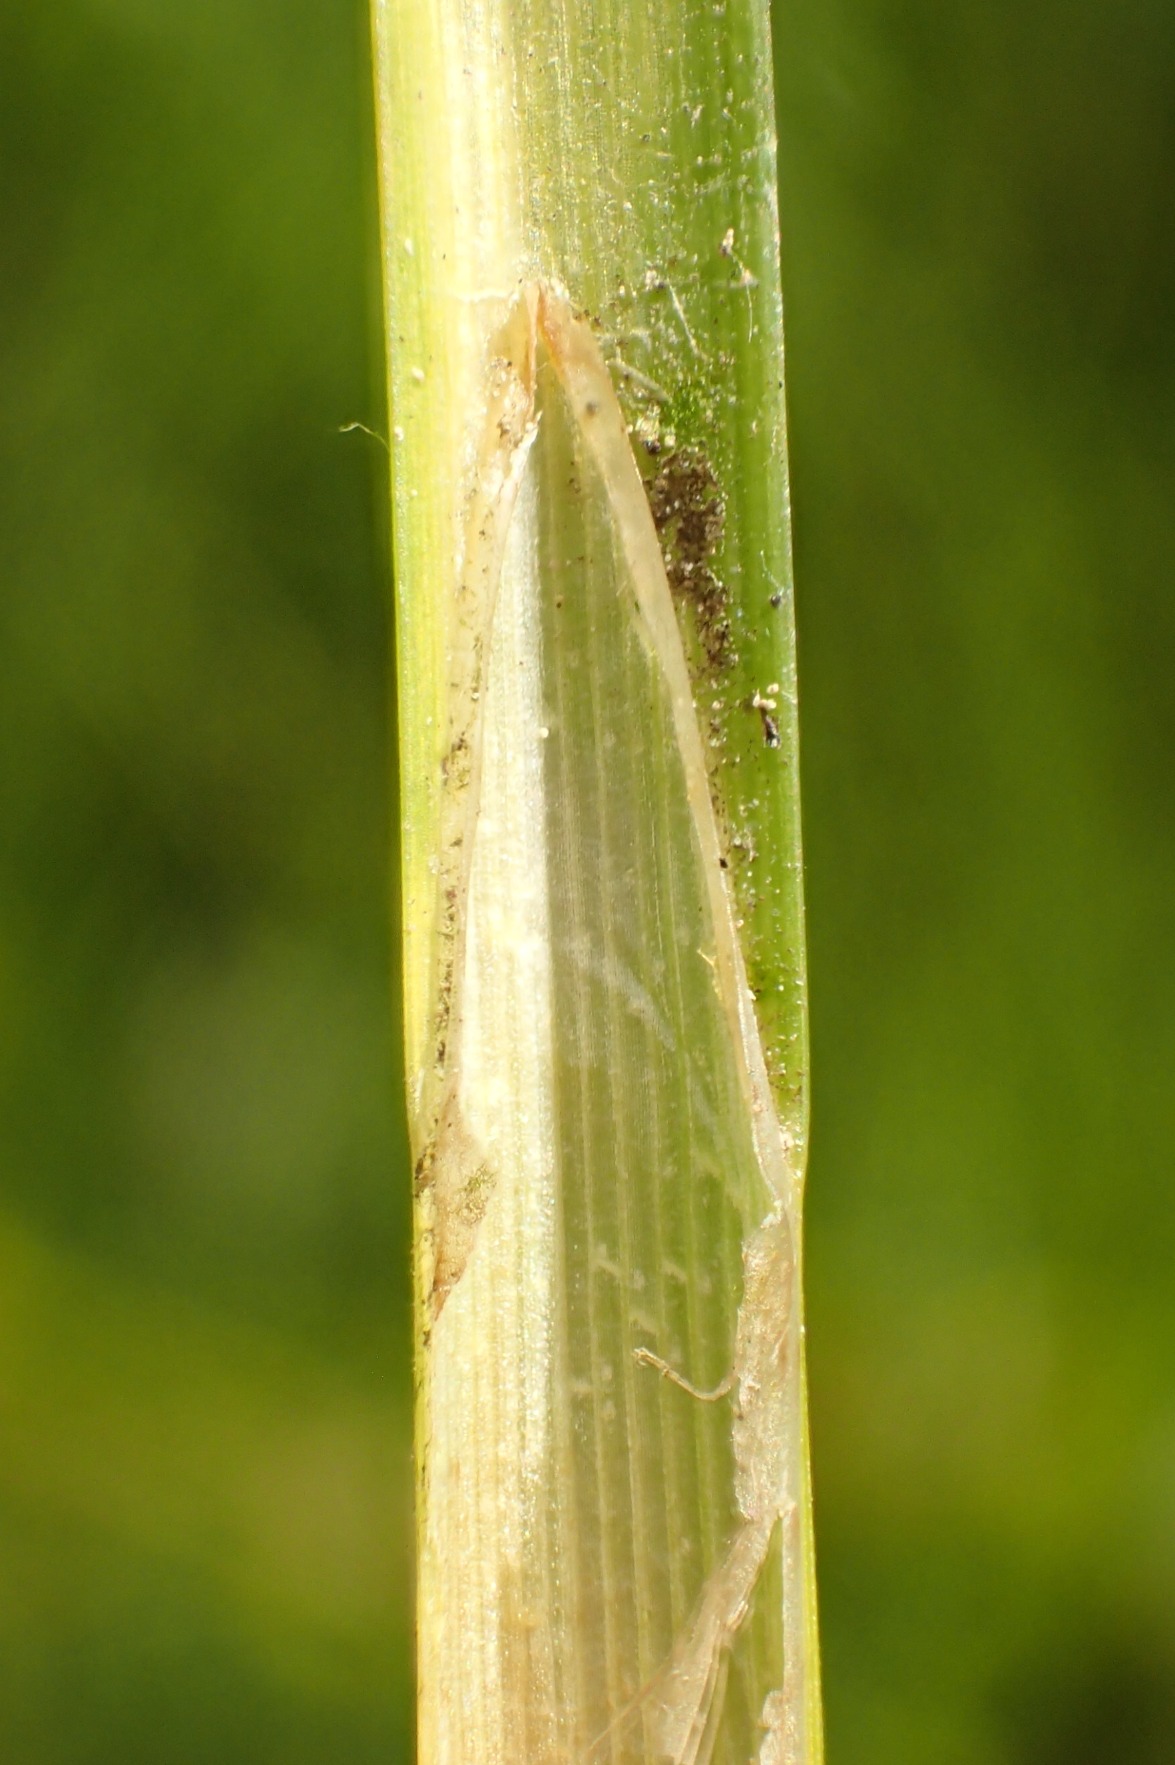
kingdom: Plantae
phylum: Tracheophyta
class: Liliopsida
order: Poales
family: Cyperaceae
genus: Carex
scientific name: Carex vesicaria
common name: Blære-star
